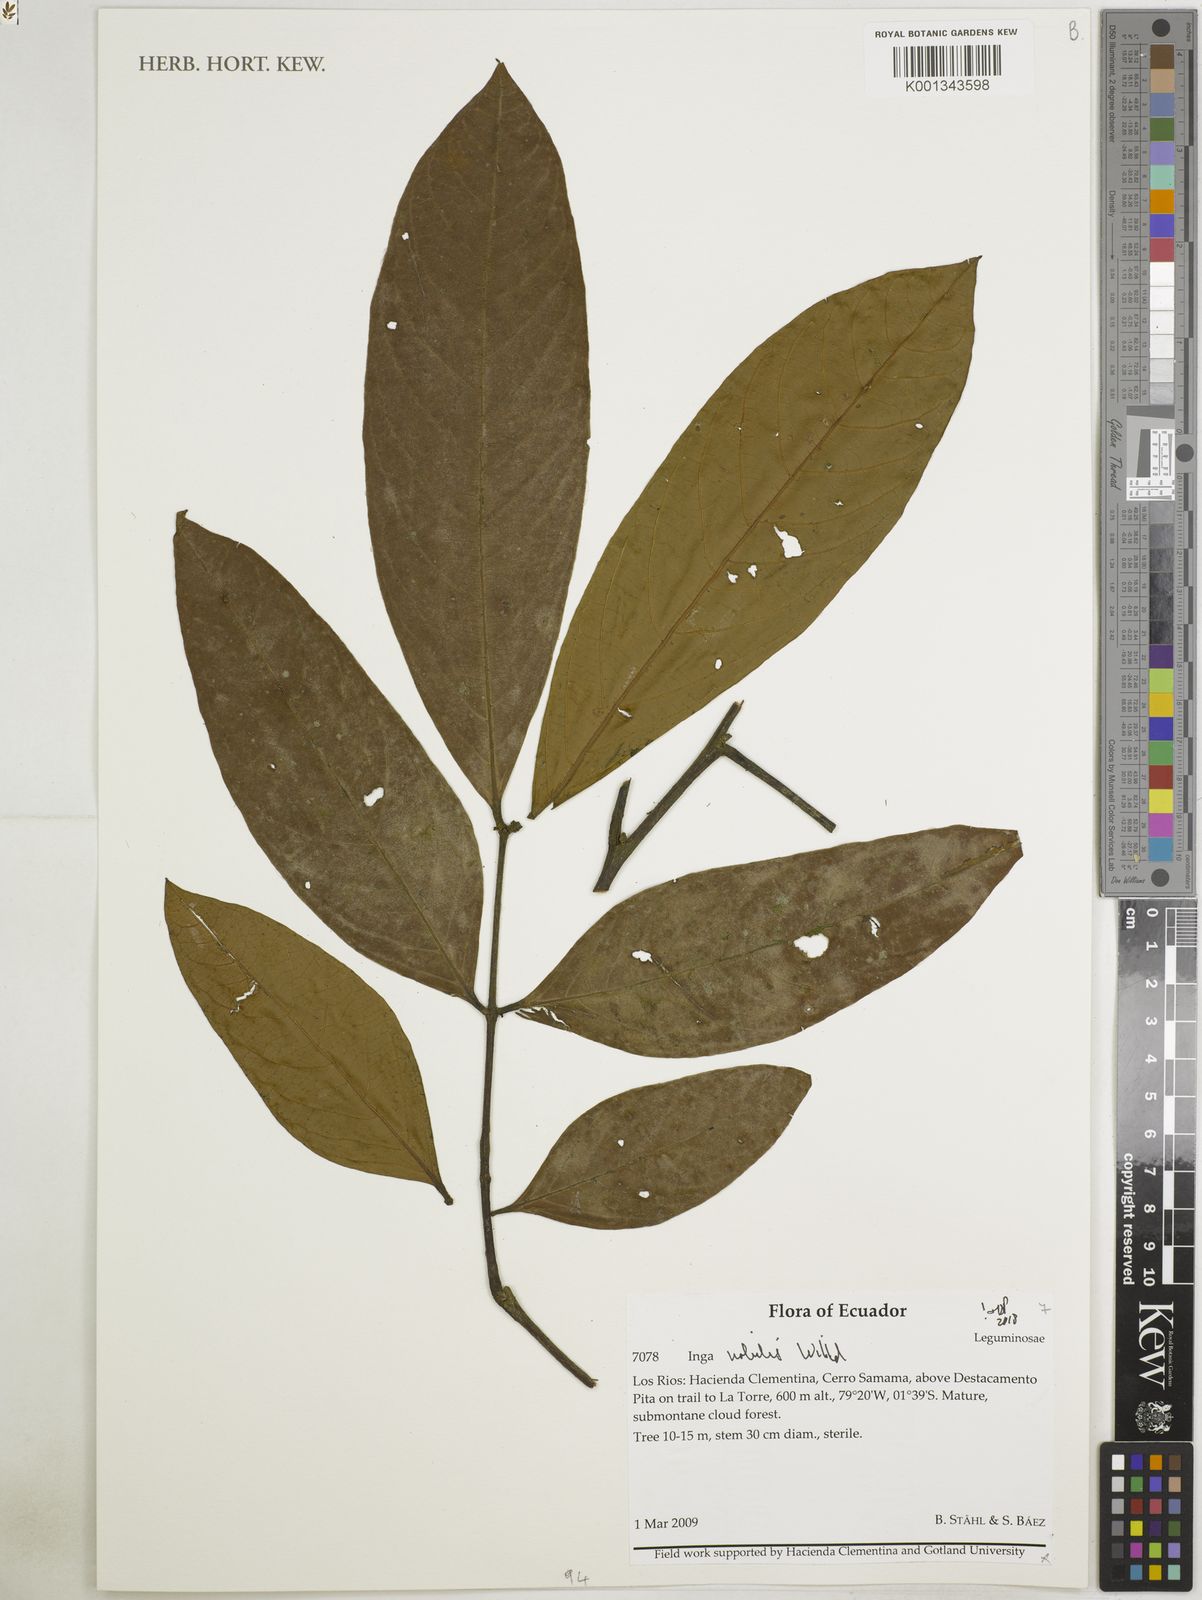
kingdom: Plantae
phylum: Tracheophyta
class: Magnoliopsida
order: Fabales
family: Fabaceae
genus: Inga
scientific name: Inga nobilis
